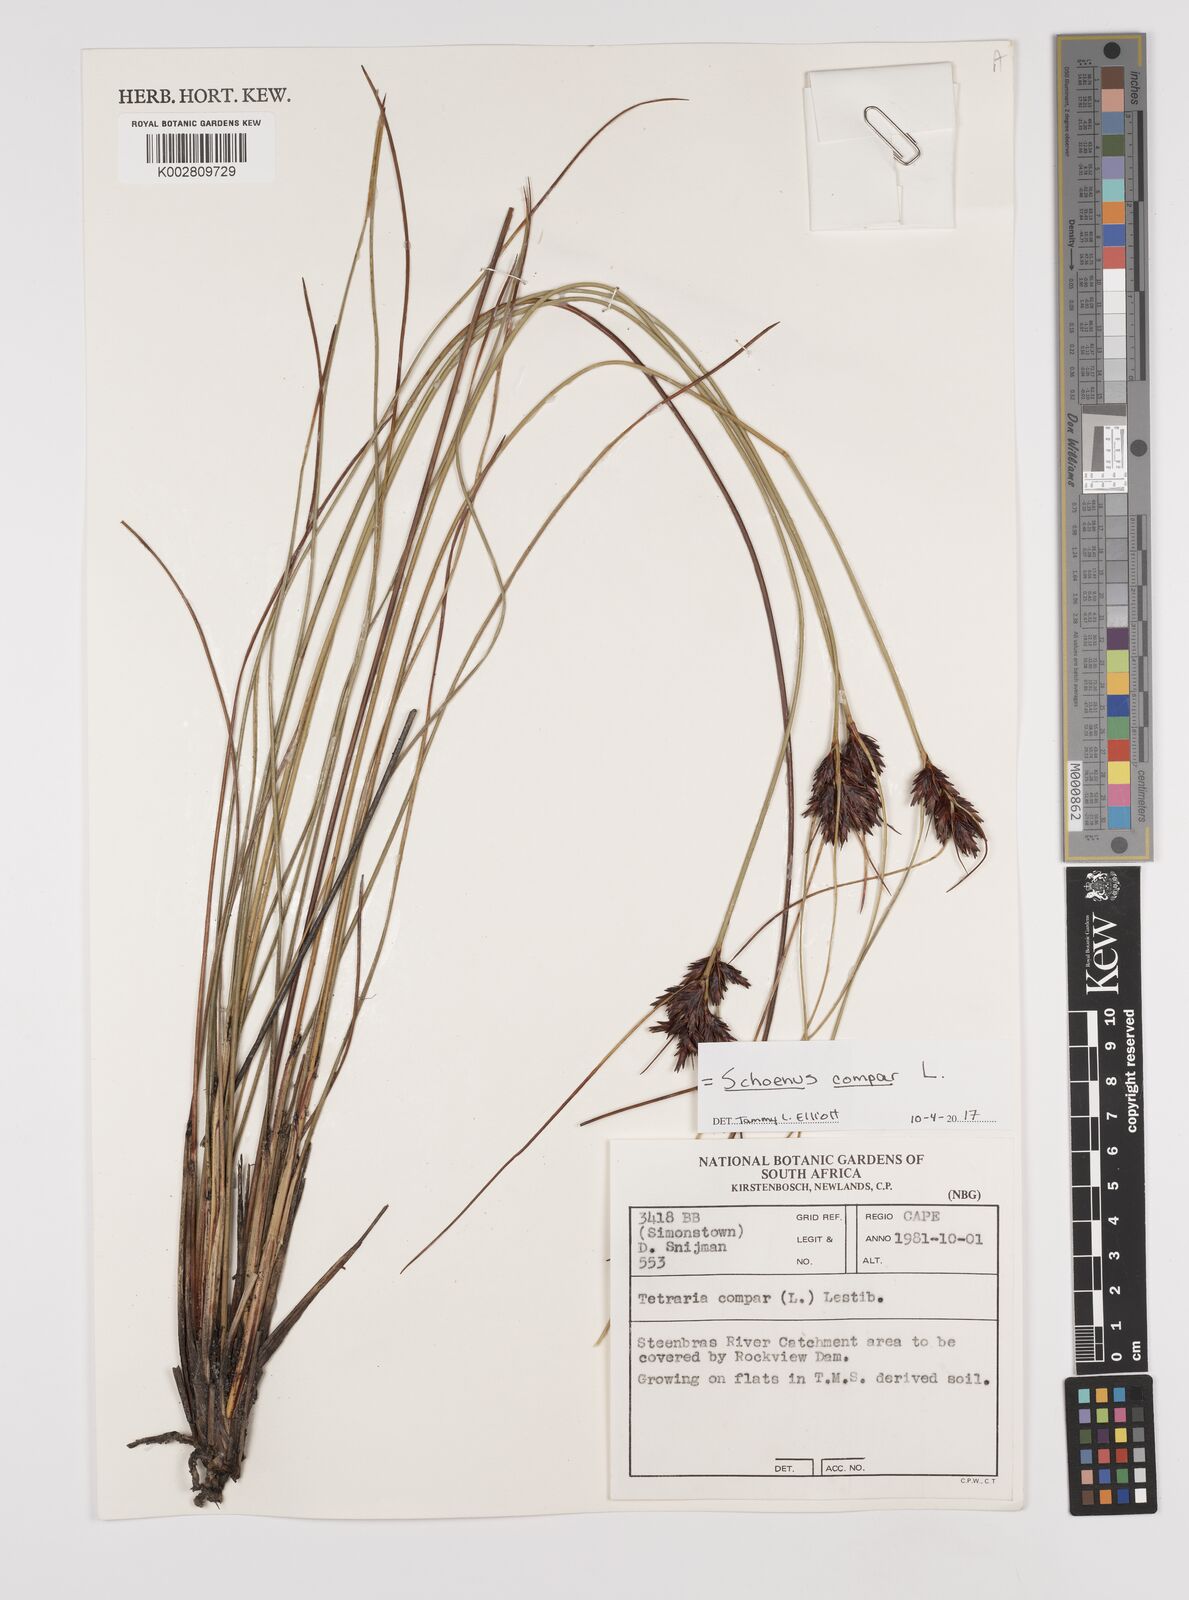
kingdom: Plantae
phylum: Tracheophyta
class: Liliopsida
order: Poales
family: Cyperaceae
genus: Schoenus
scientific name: Schoenus compar
